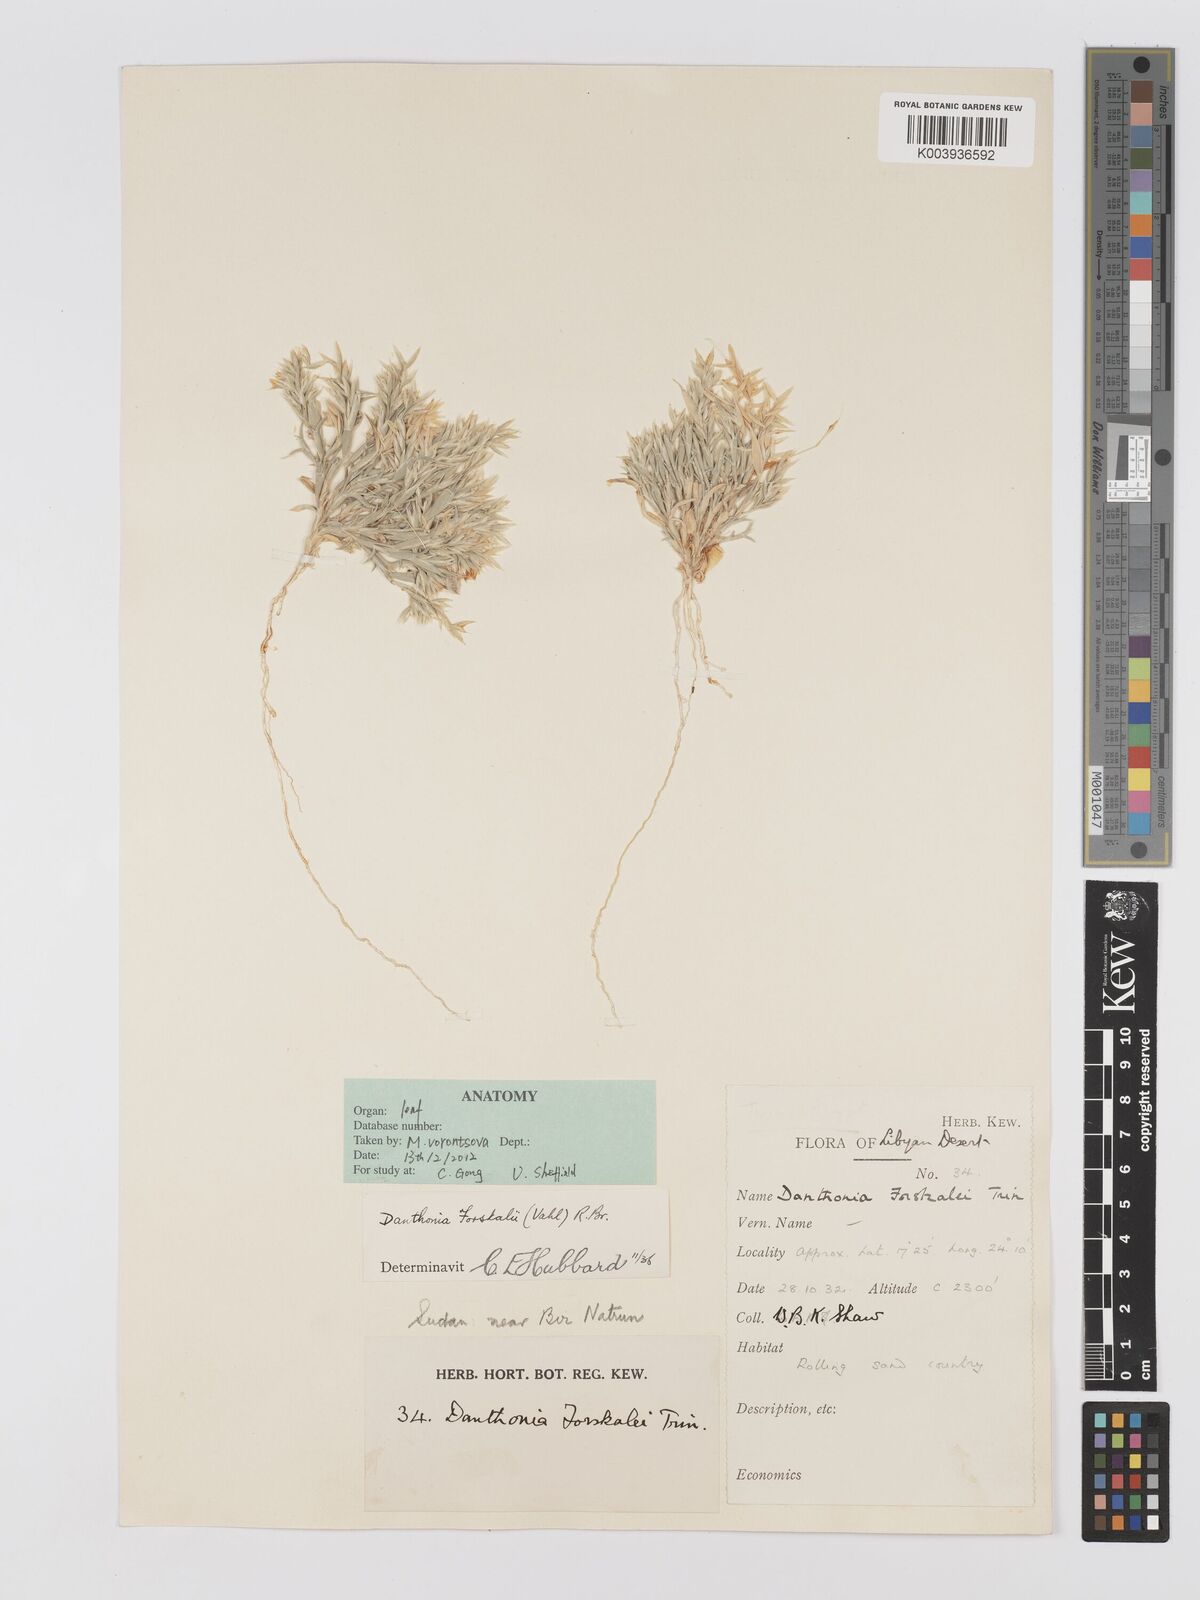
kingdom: Plantae
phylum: Tracheophyta
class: Liliopsida
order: Poales
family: Poaceae
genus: Centropodia
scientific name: Centropodia forskaolii
